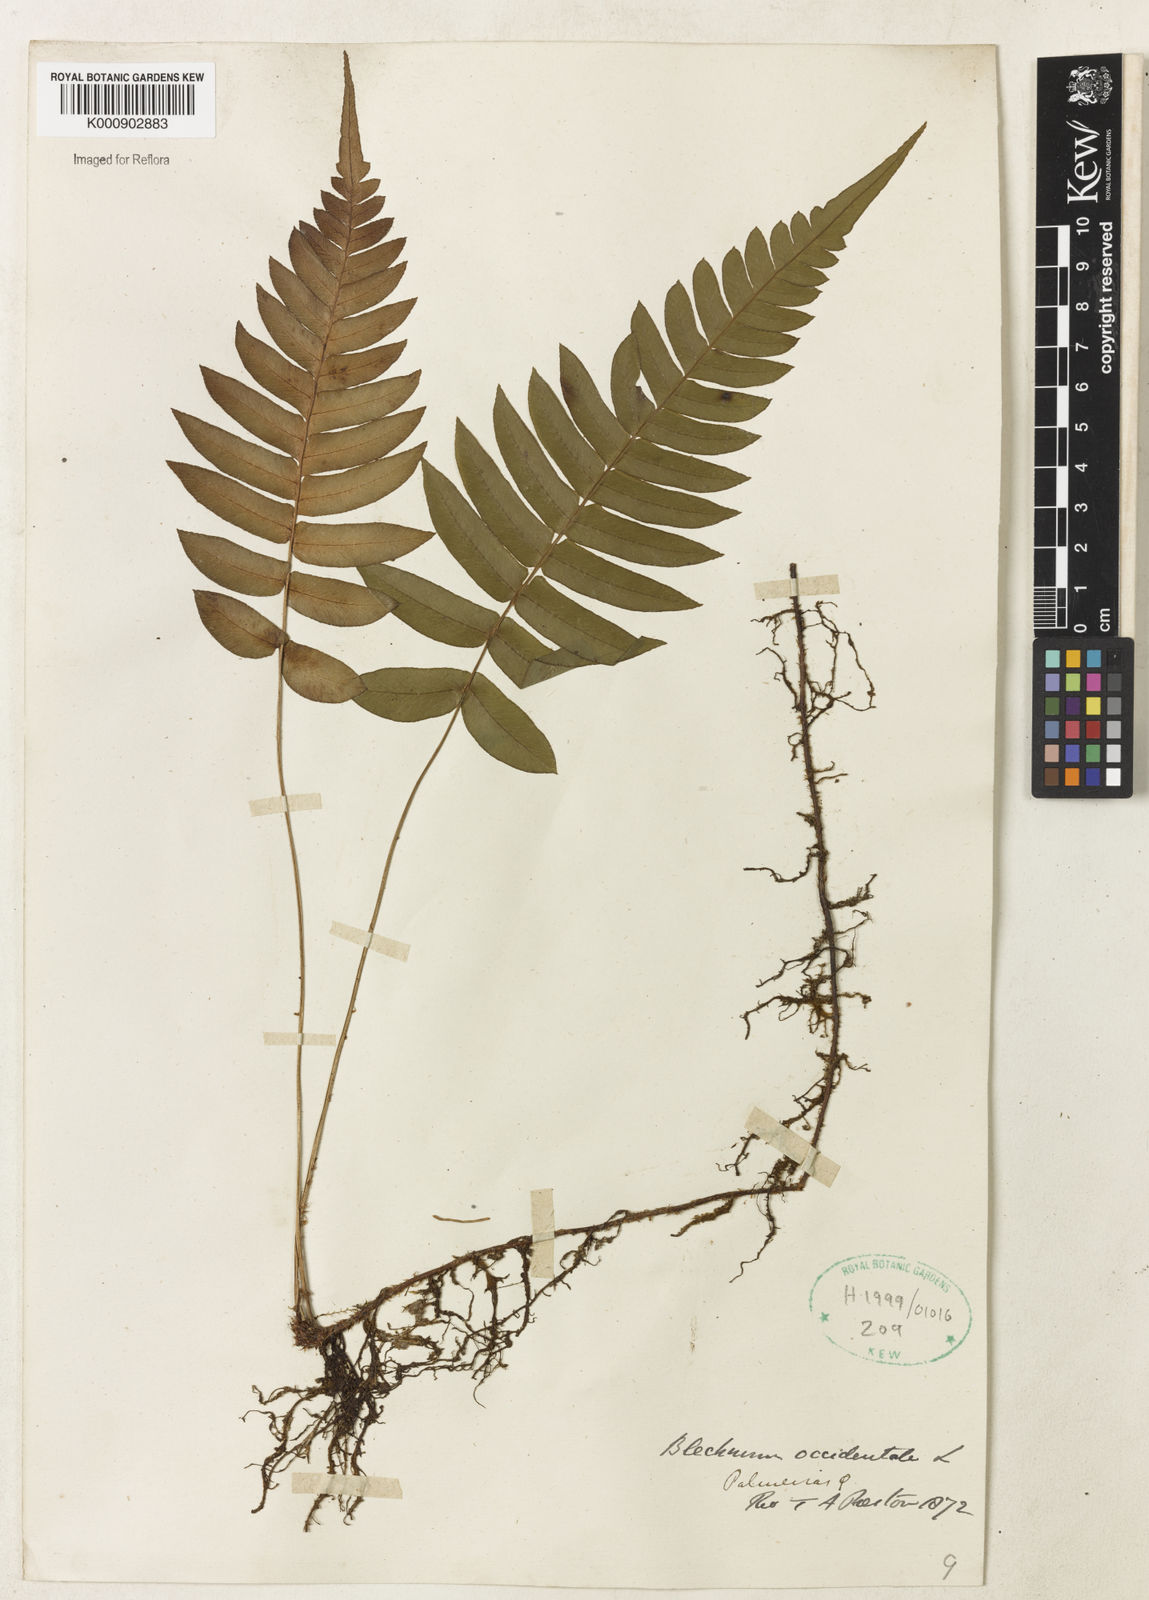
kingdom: Plantae
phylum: Tracheophyta
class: Polypodiopsida
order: Polypodiales
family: Blechnaceae
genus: Blechnum
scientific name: Blechnum occidentale
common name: Hammock fern
